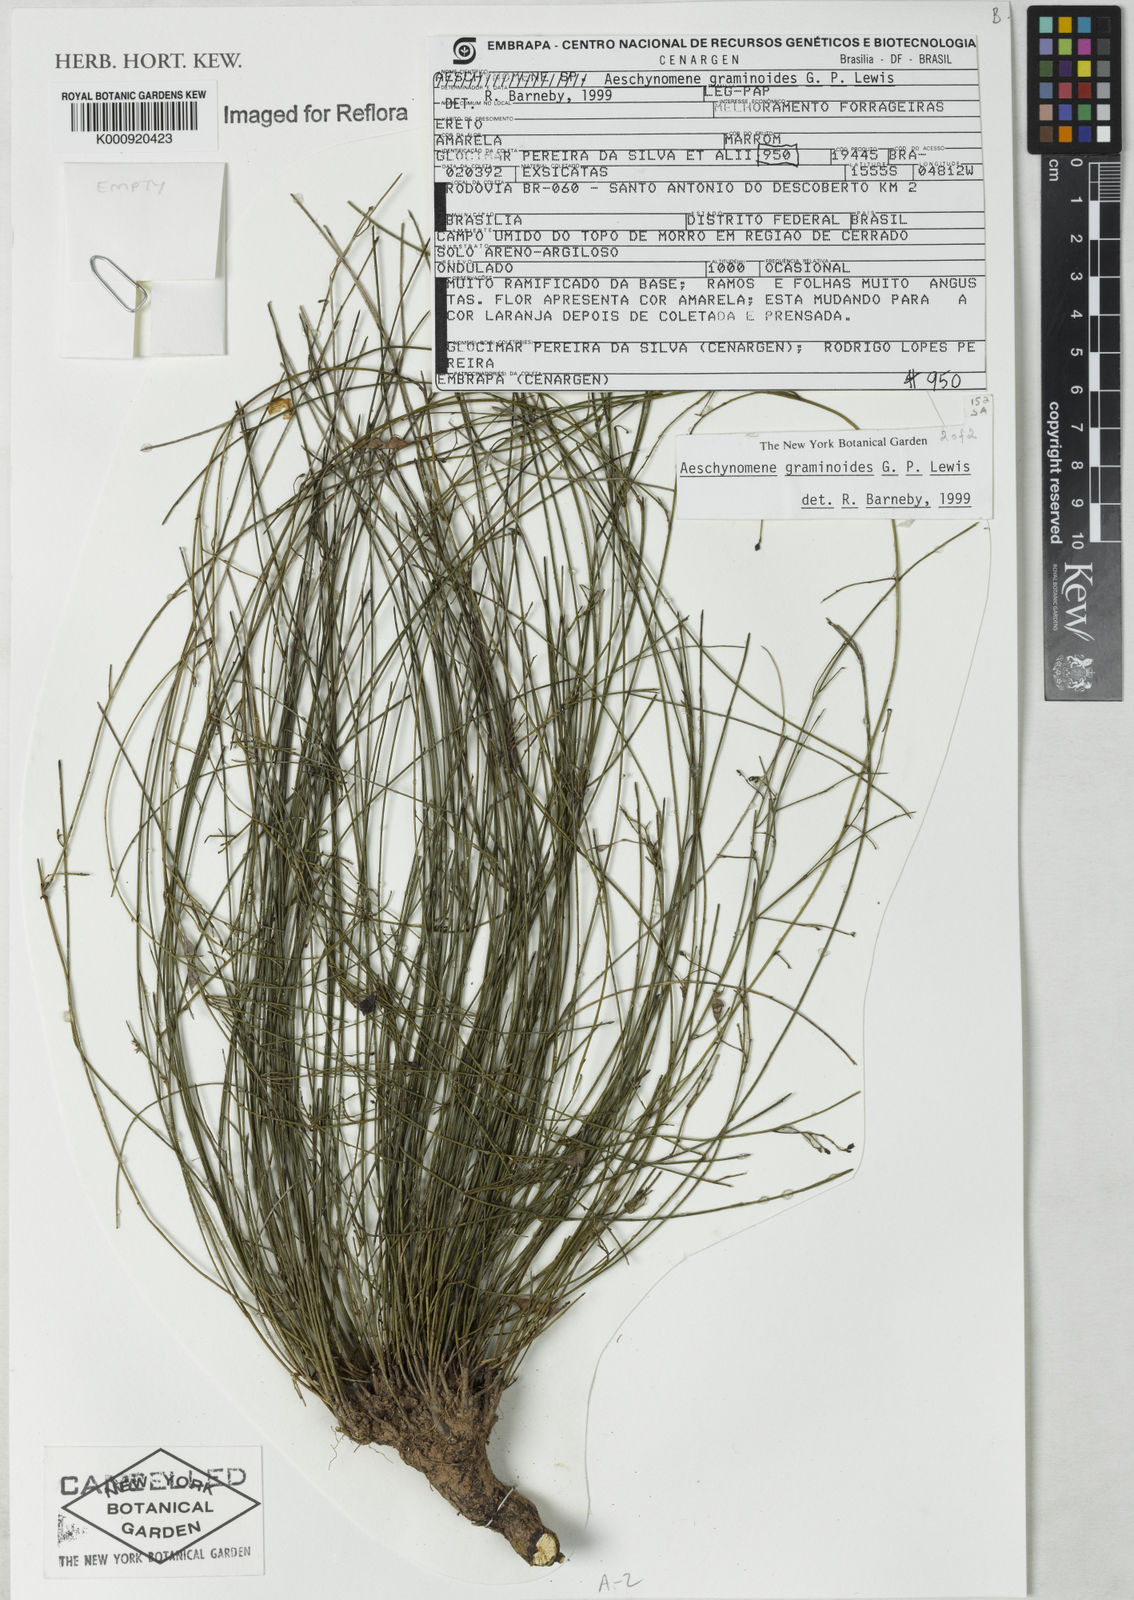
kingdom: Plantae
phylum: Tracheophyta
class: Magnoliopsida
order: Fabales
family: Fabaceae
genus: Ctenodon
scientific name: Ctenodon graminoides
